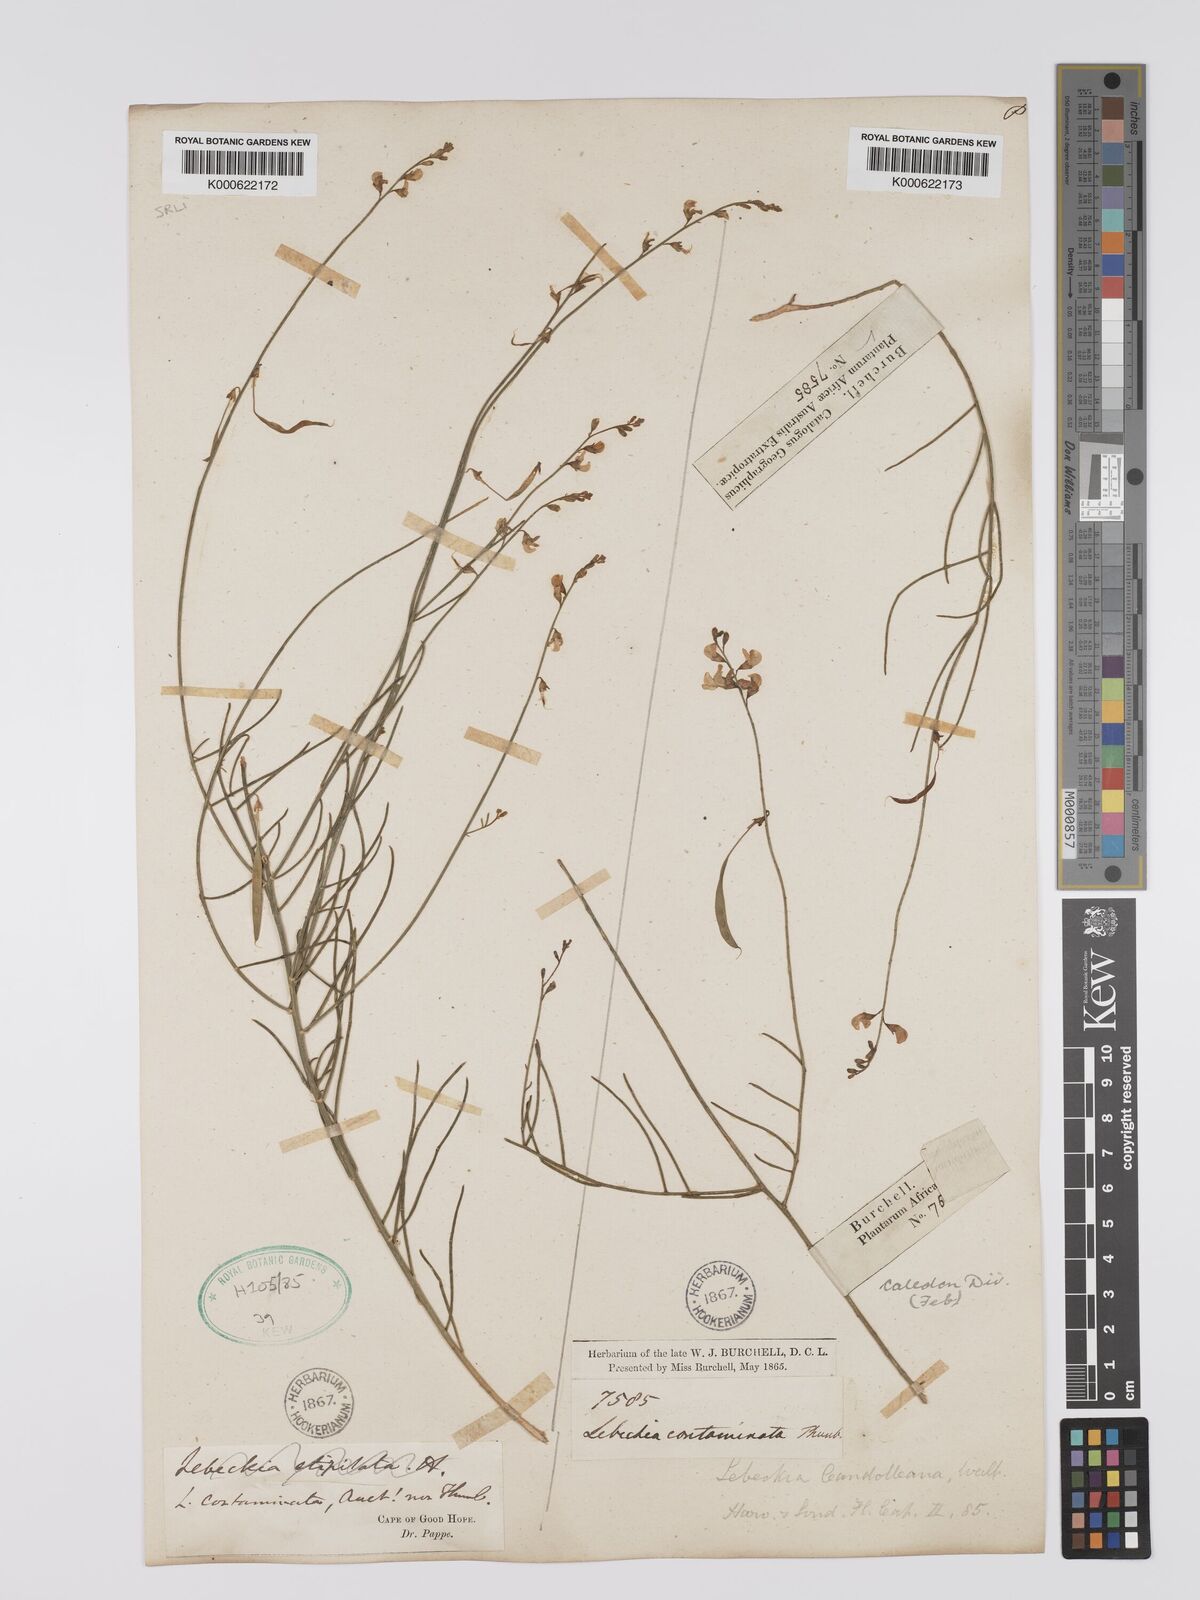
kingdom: Plantae
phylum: Tracheophyta
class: Magnoliopsida
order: Fabales
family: Fabaceae
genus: Lebeckia
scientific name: Lebeckia contaminata
